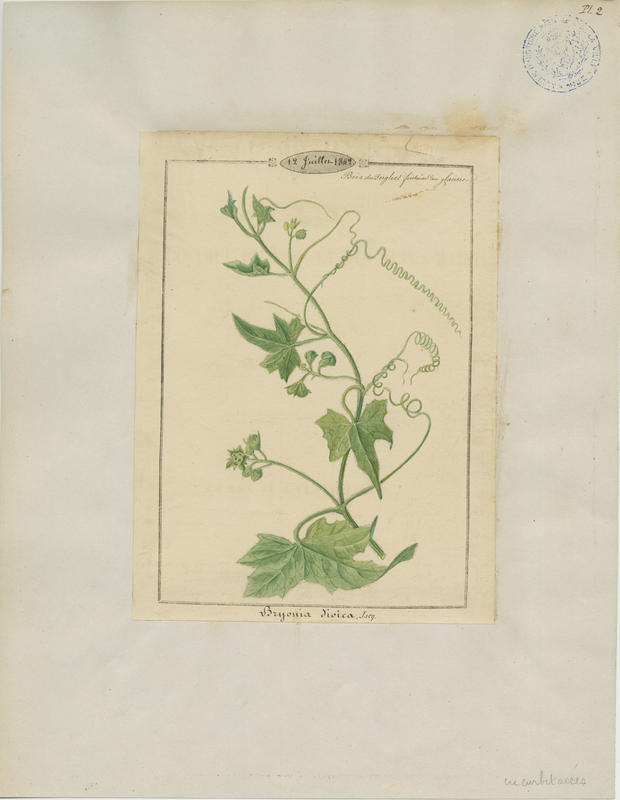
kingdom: Plantae
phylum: Tracheophyta
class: Magnoliopsida
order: Cucurbitales
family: Cucurbitaceae
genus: Bryonia
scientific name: Bryonia dioica
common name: White bryony
